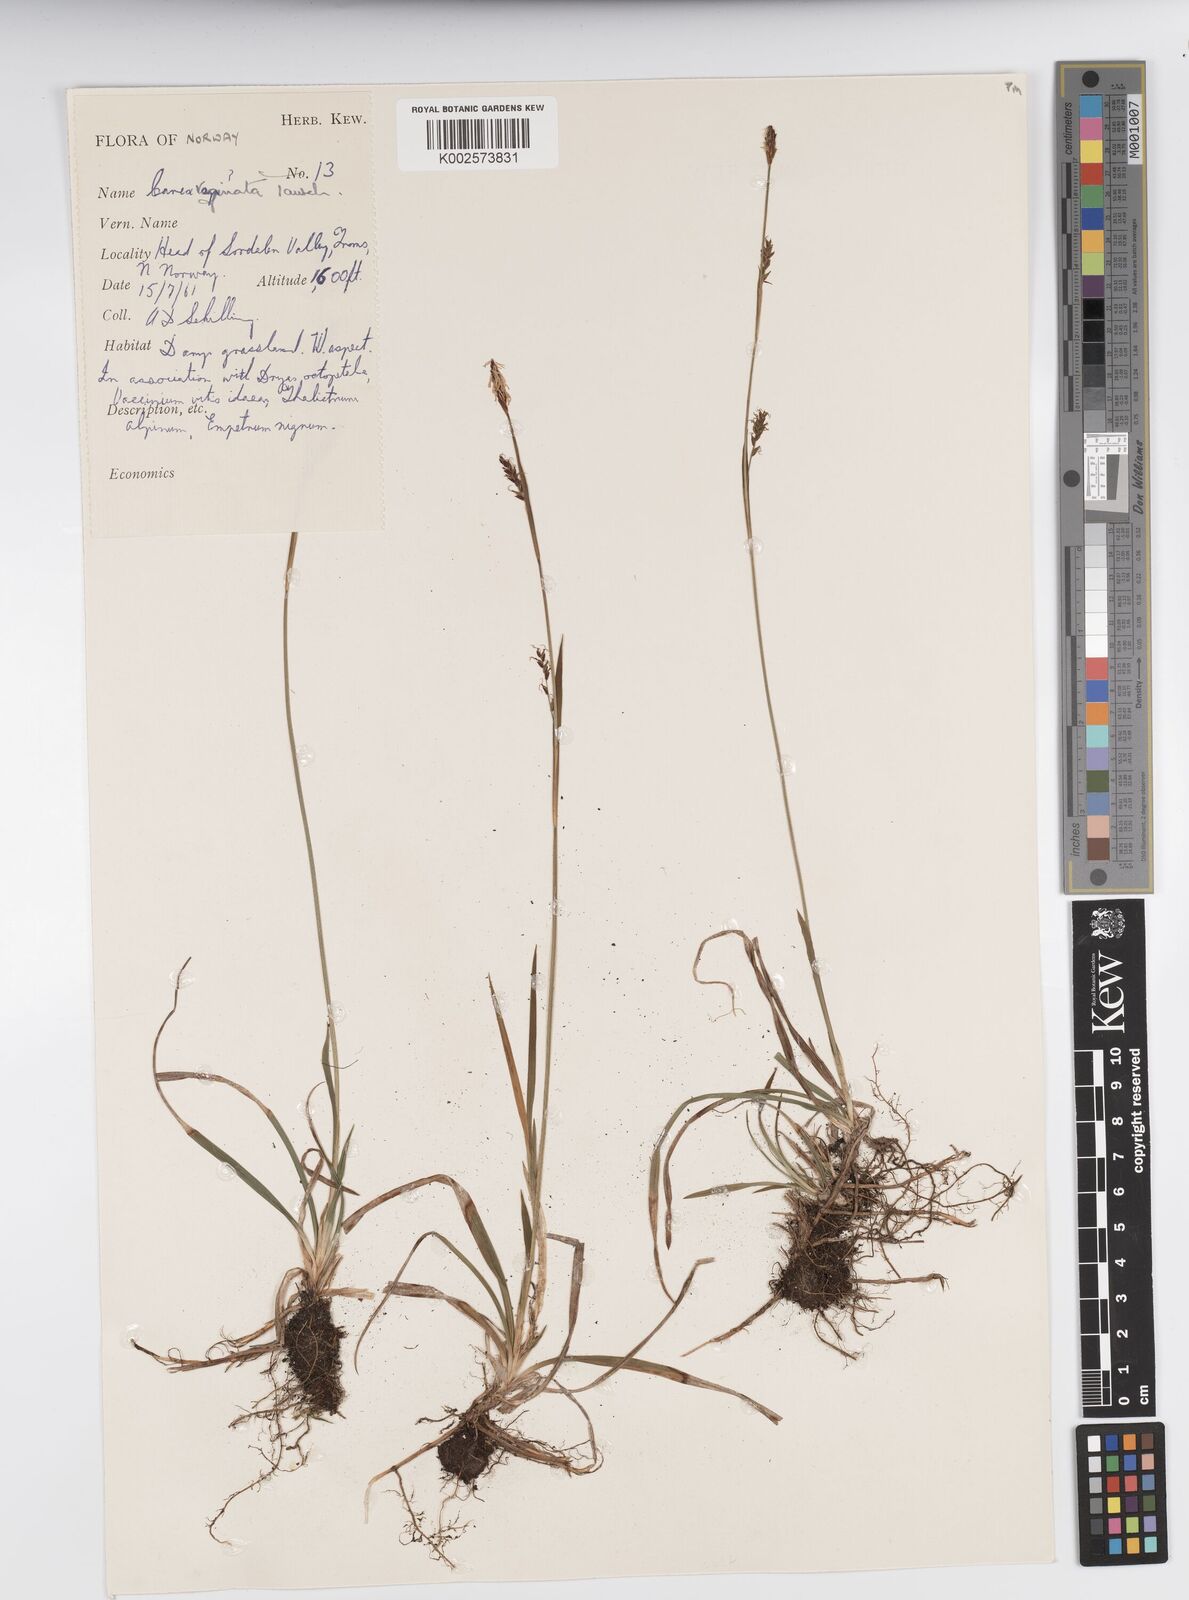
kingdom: Plantae
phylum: Tracheophyta
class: Liliopsida
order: Poales
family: Cyperaceae
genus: Carex
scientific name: Carex vaginata
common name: Sheathed sedge
